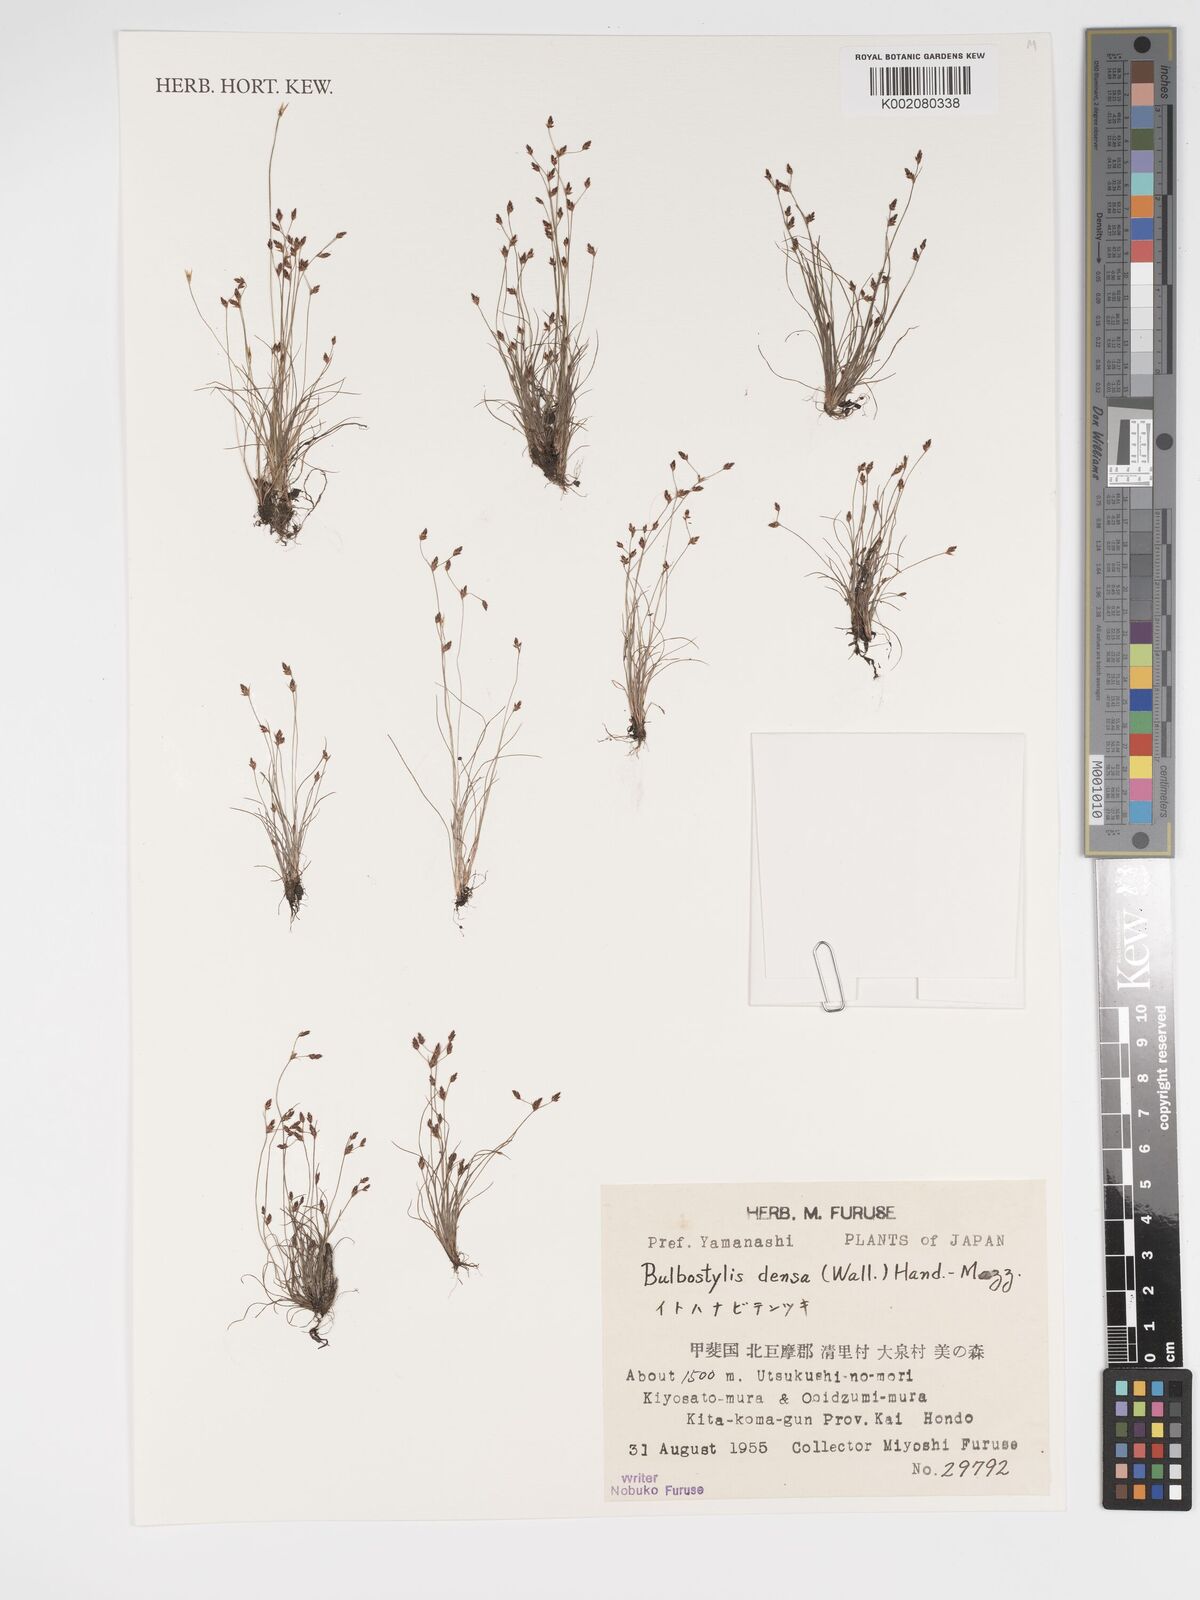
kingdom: Plantae
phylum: Tracheophyta
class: Liliopsida
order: Poales
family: Cyperaceae
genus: Bulbostylis
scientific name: Bulbostylis densa
